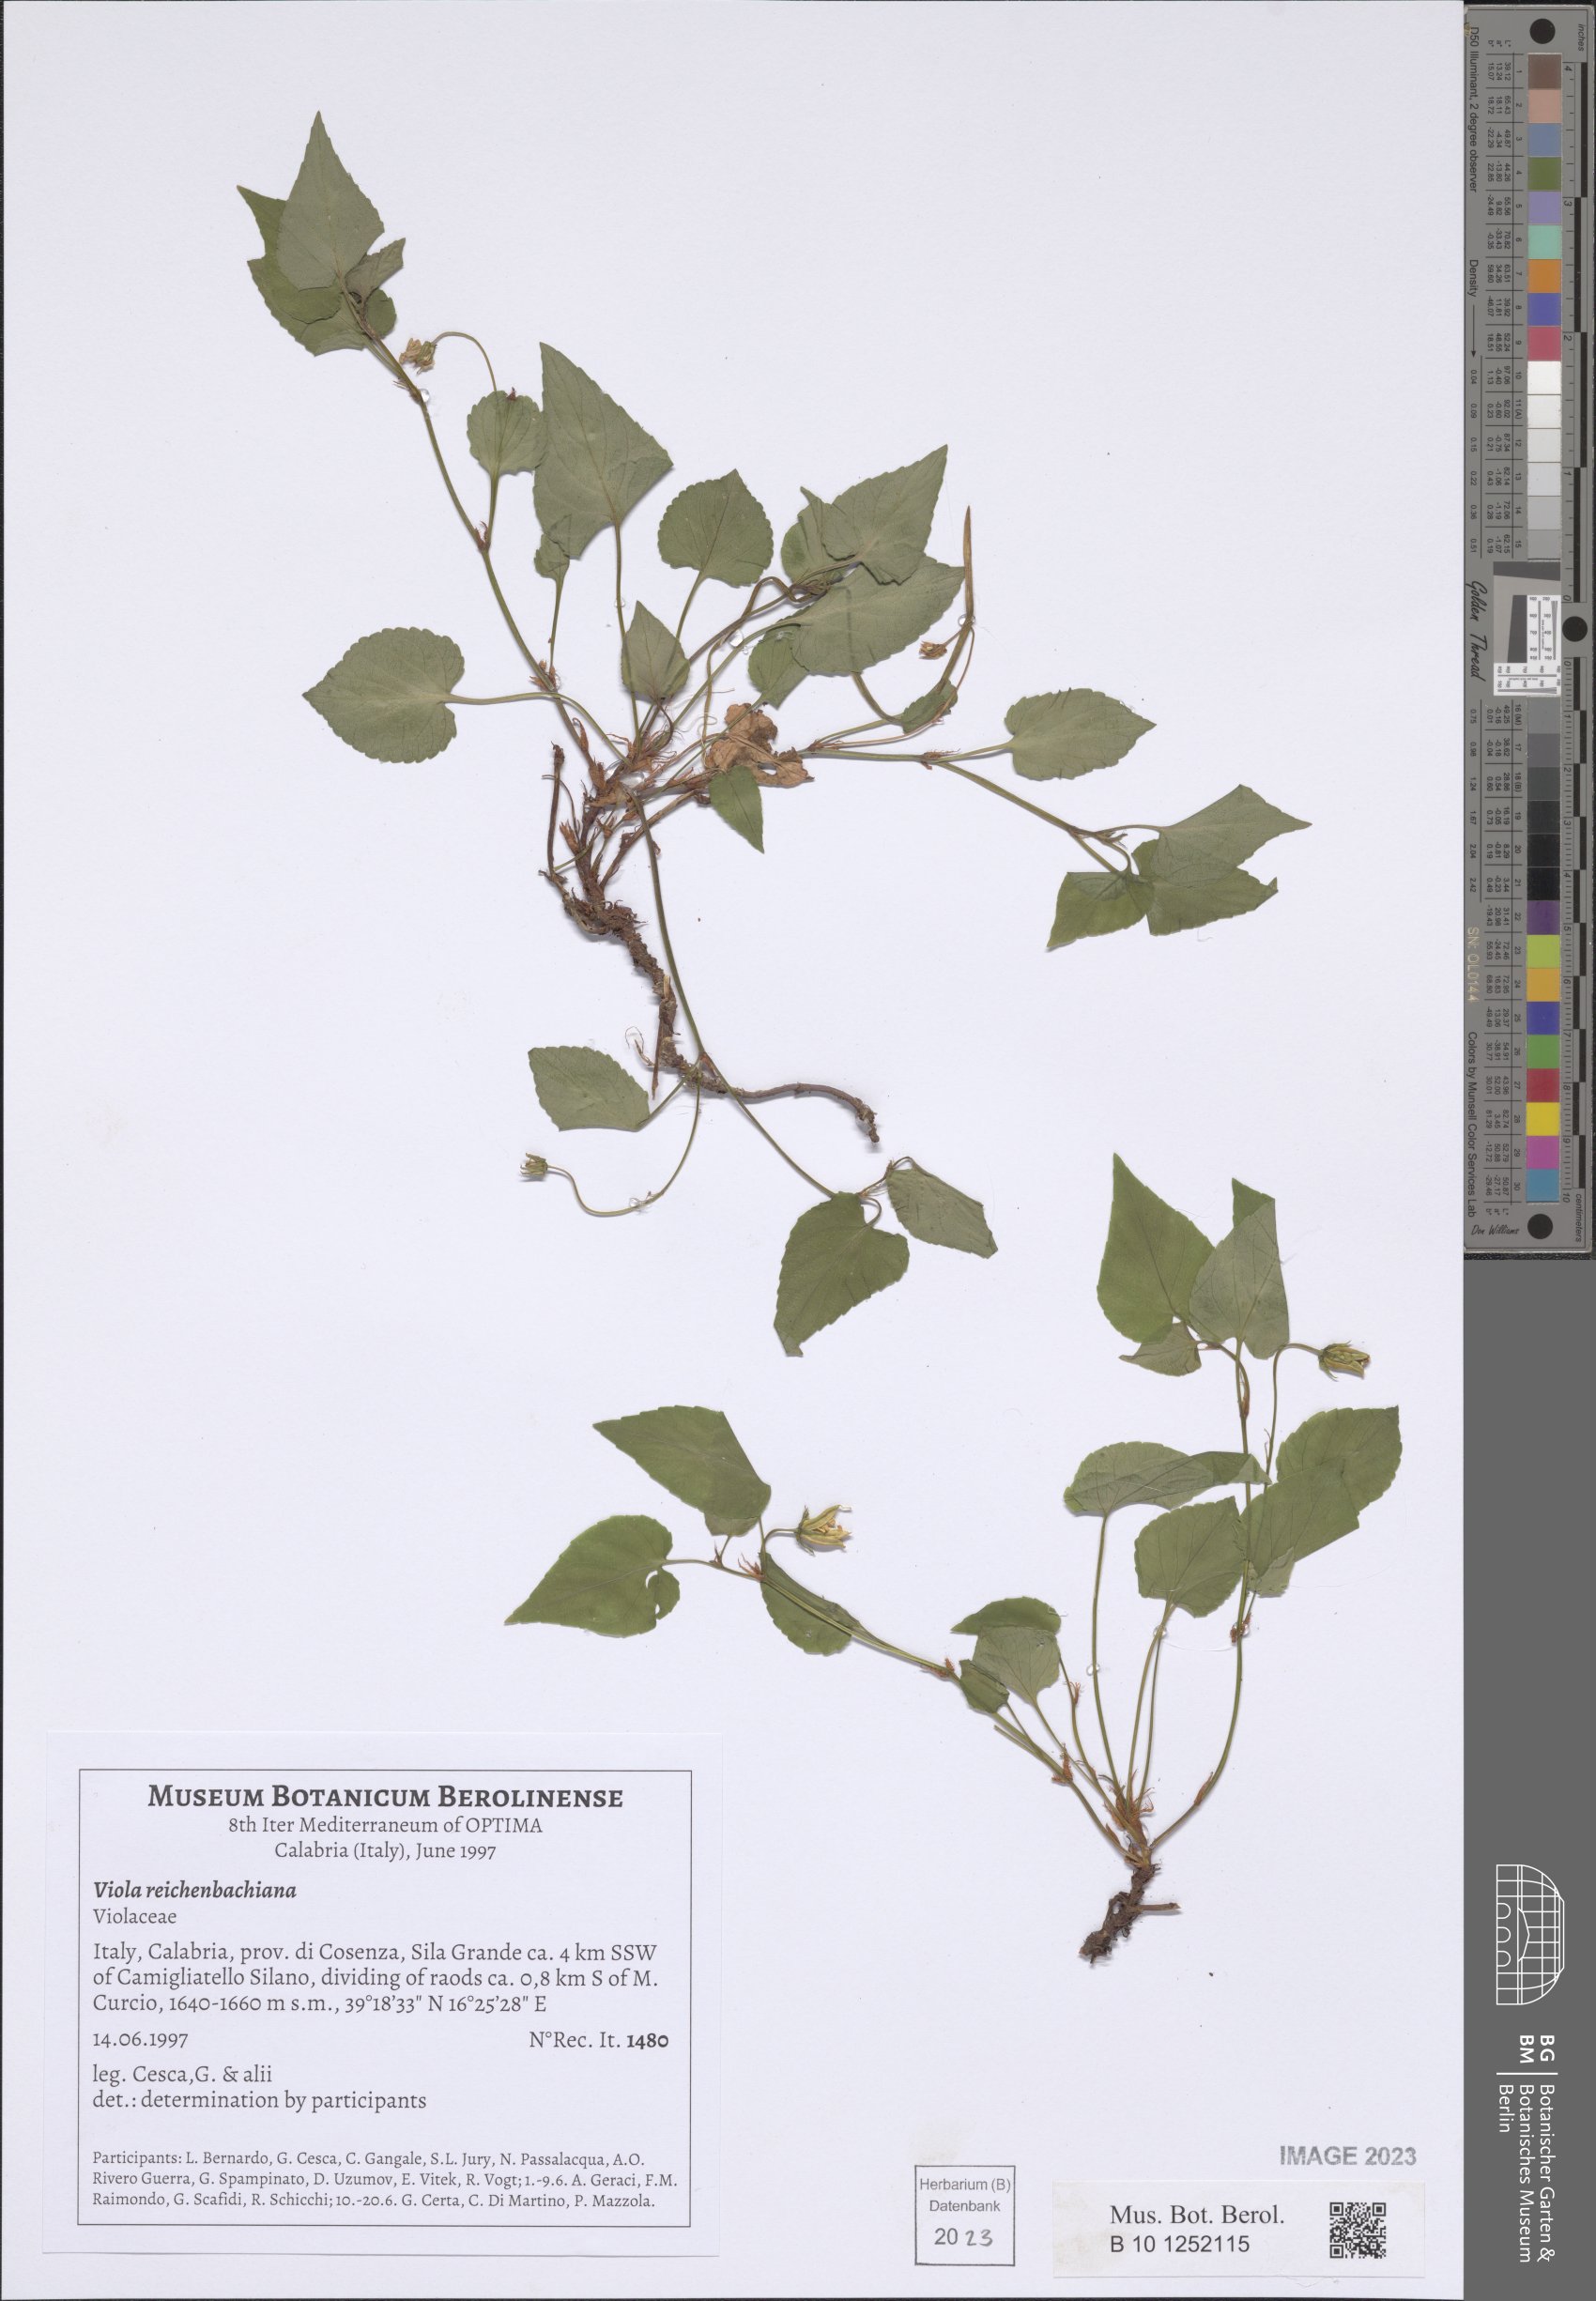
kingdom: Plantae
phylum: Tracheophyta
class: Magnoliopsida
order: Malpighiales
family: Violaceae
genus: Viola
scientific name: Viola reichenbachiana
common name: Early dog-violet
